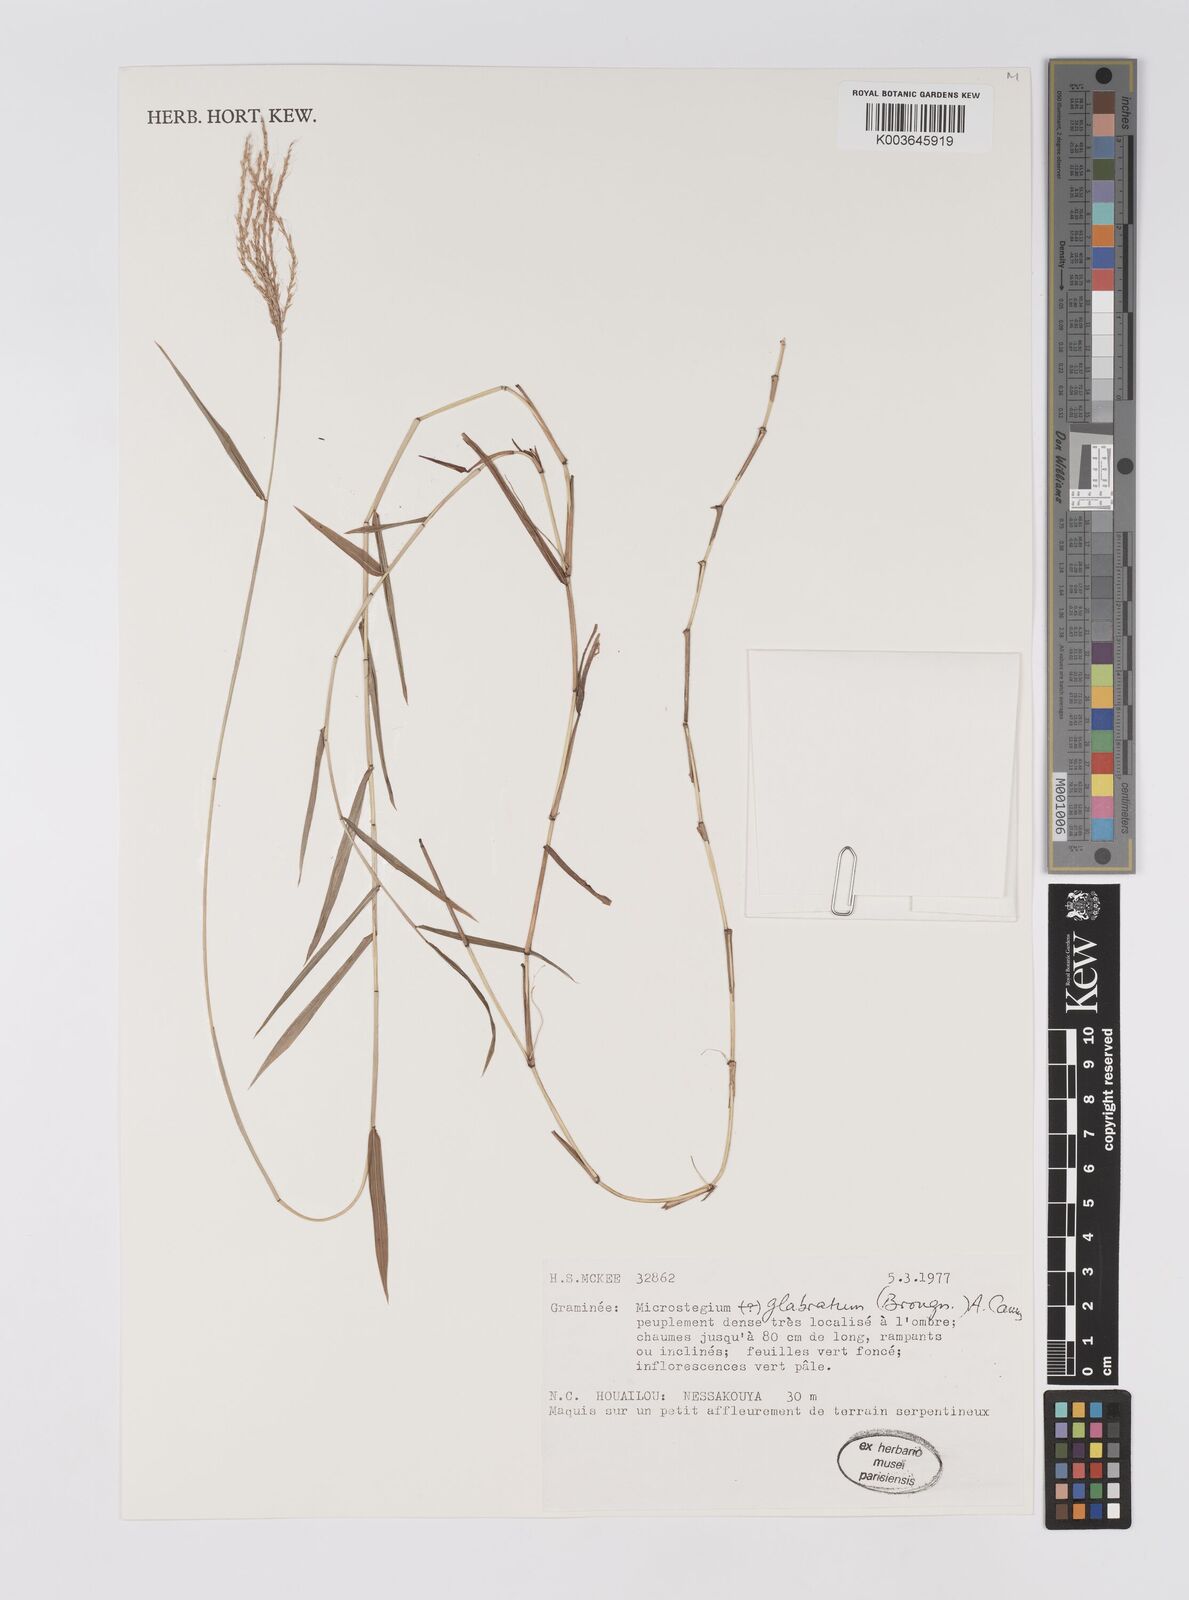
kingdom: Plantae
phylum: Tracheophyta
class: Liliopsida
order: Poales
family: Poaceae
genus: Microstegium
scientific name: Microstegium glabratum
